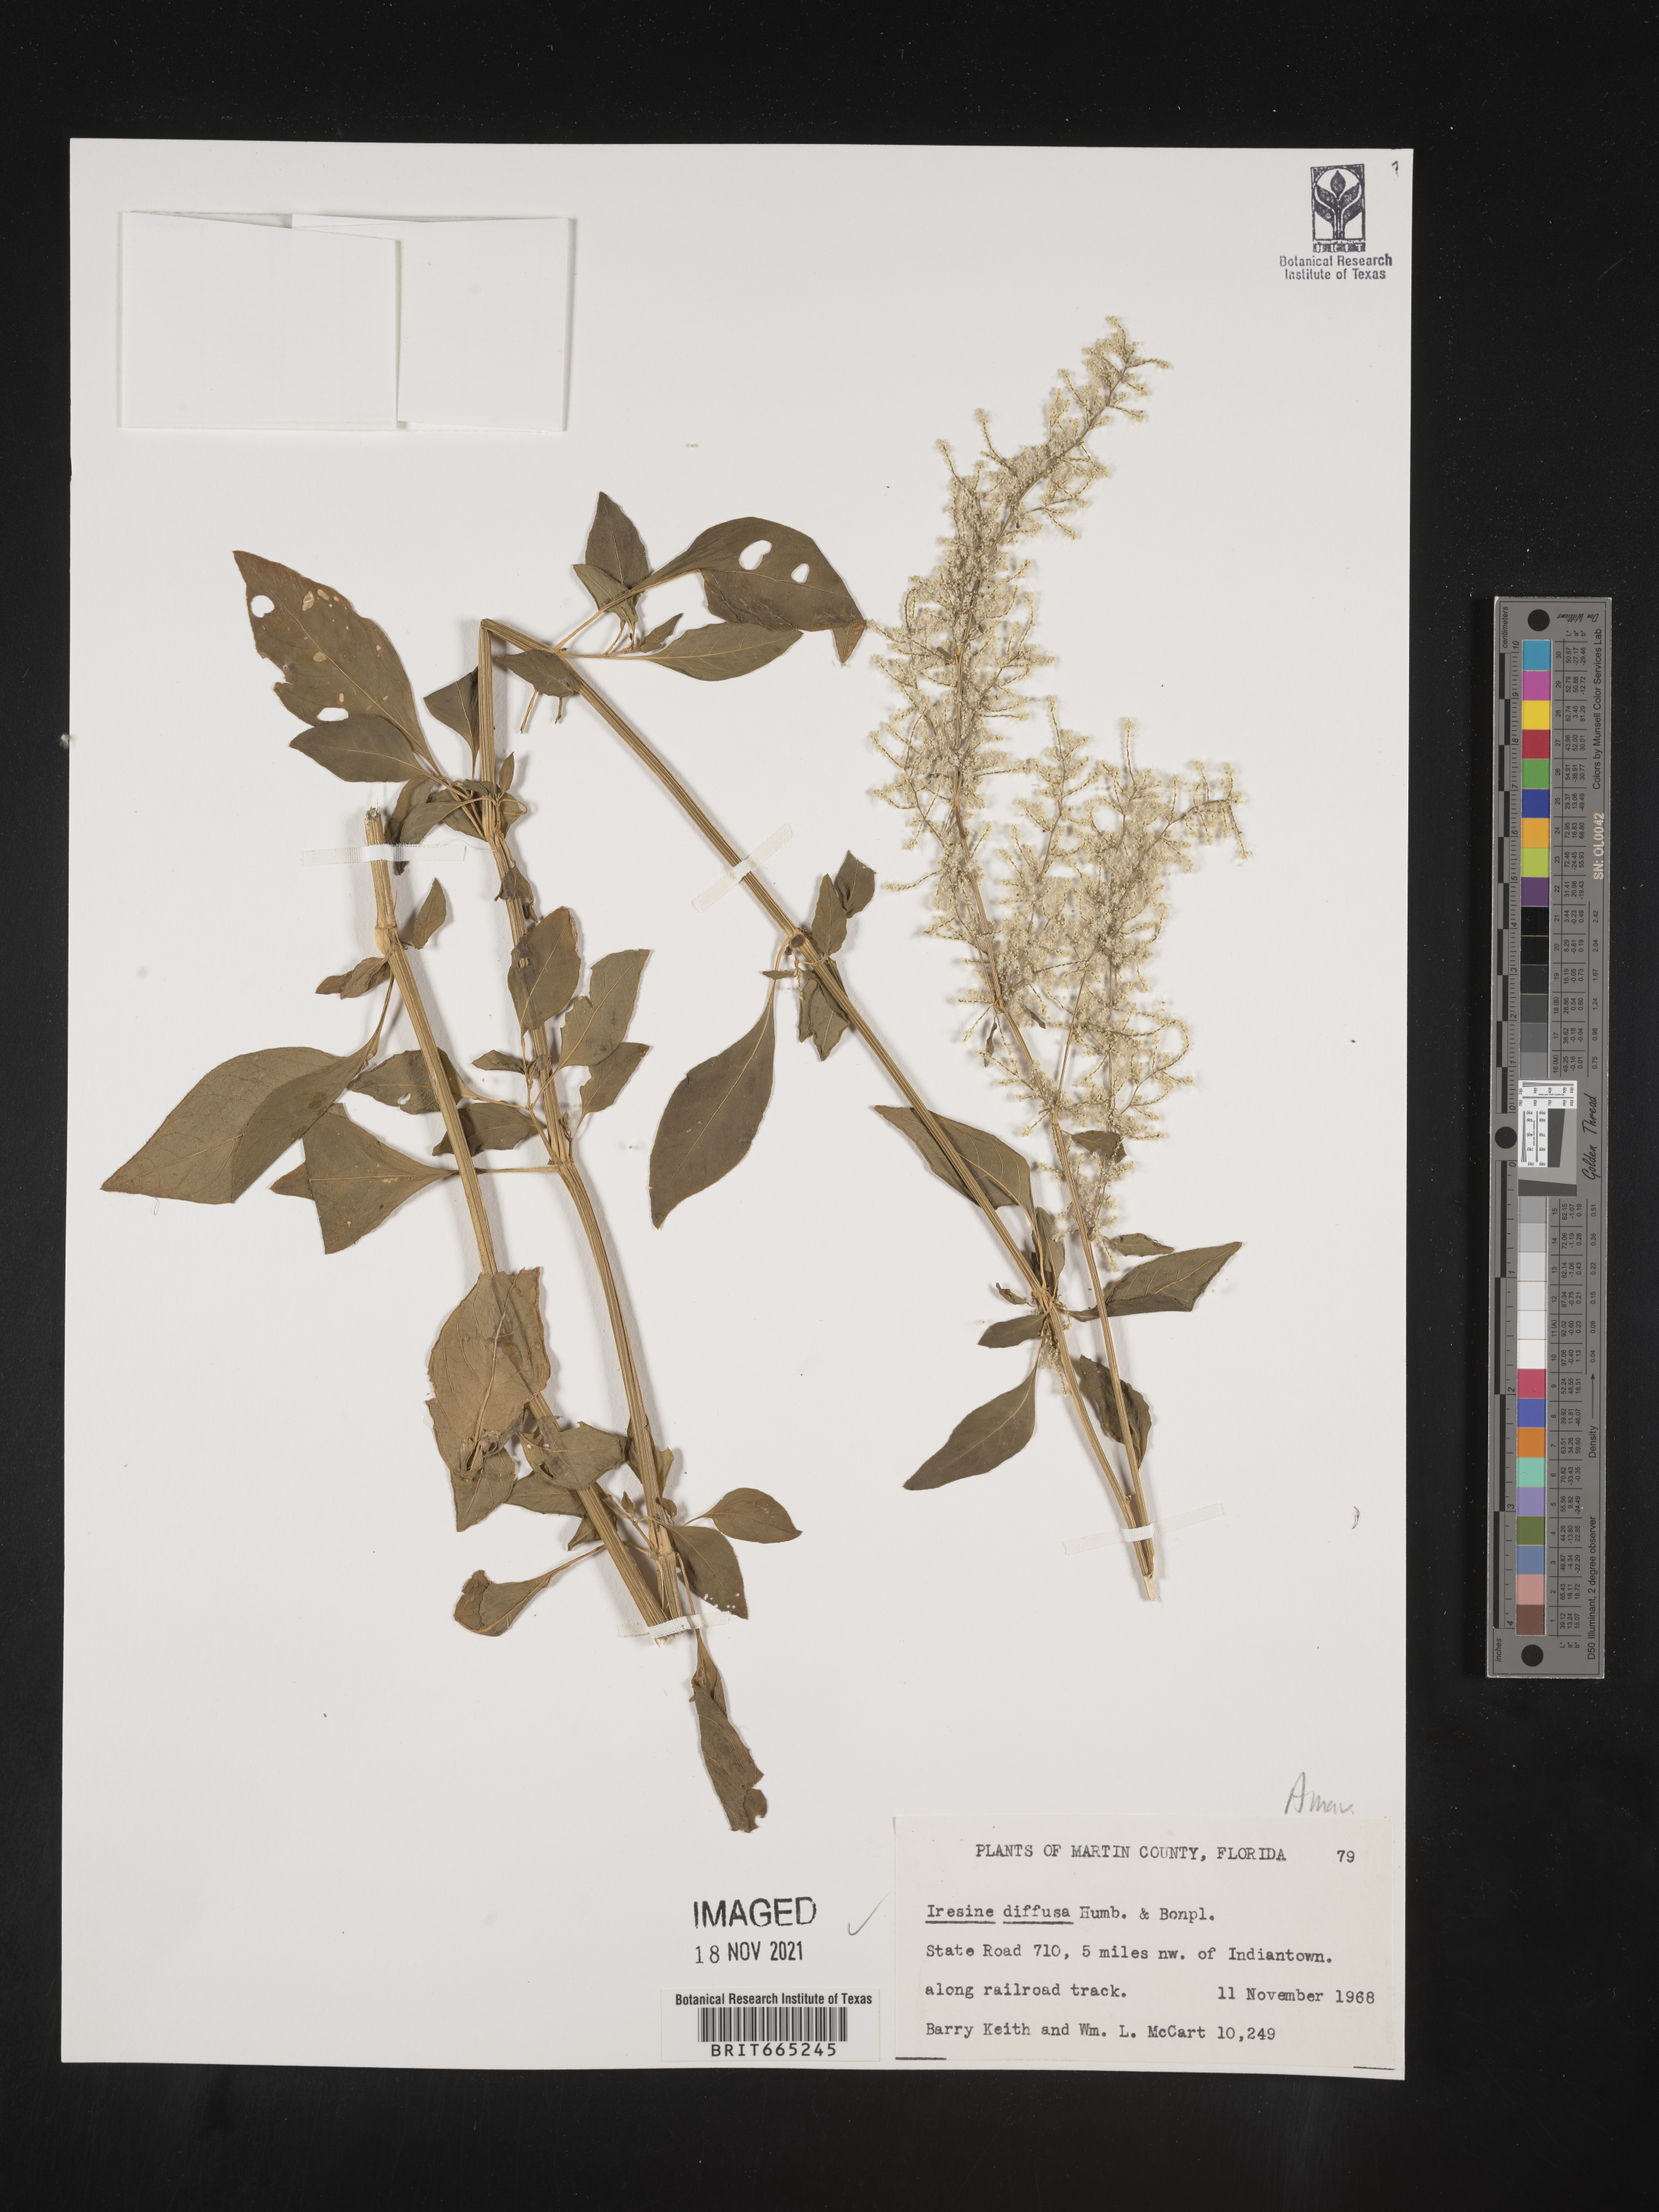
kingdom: Plantae
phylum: Tracheophyta
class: Magnoliopsida
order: Caryophyllales
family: Amaranthaceae
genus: Iresine
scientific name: Iresine
